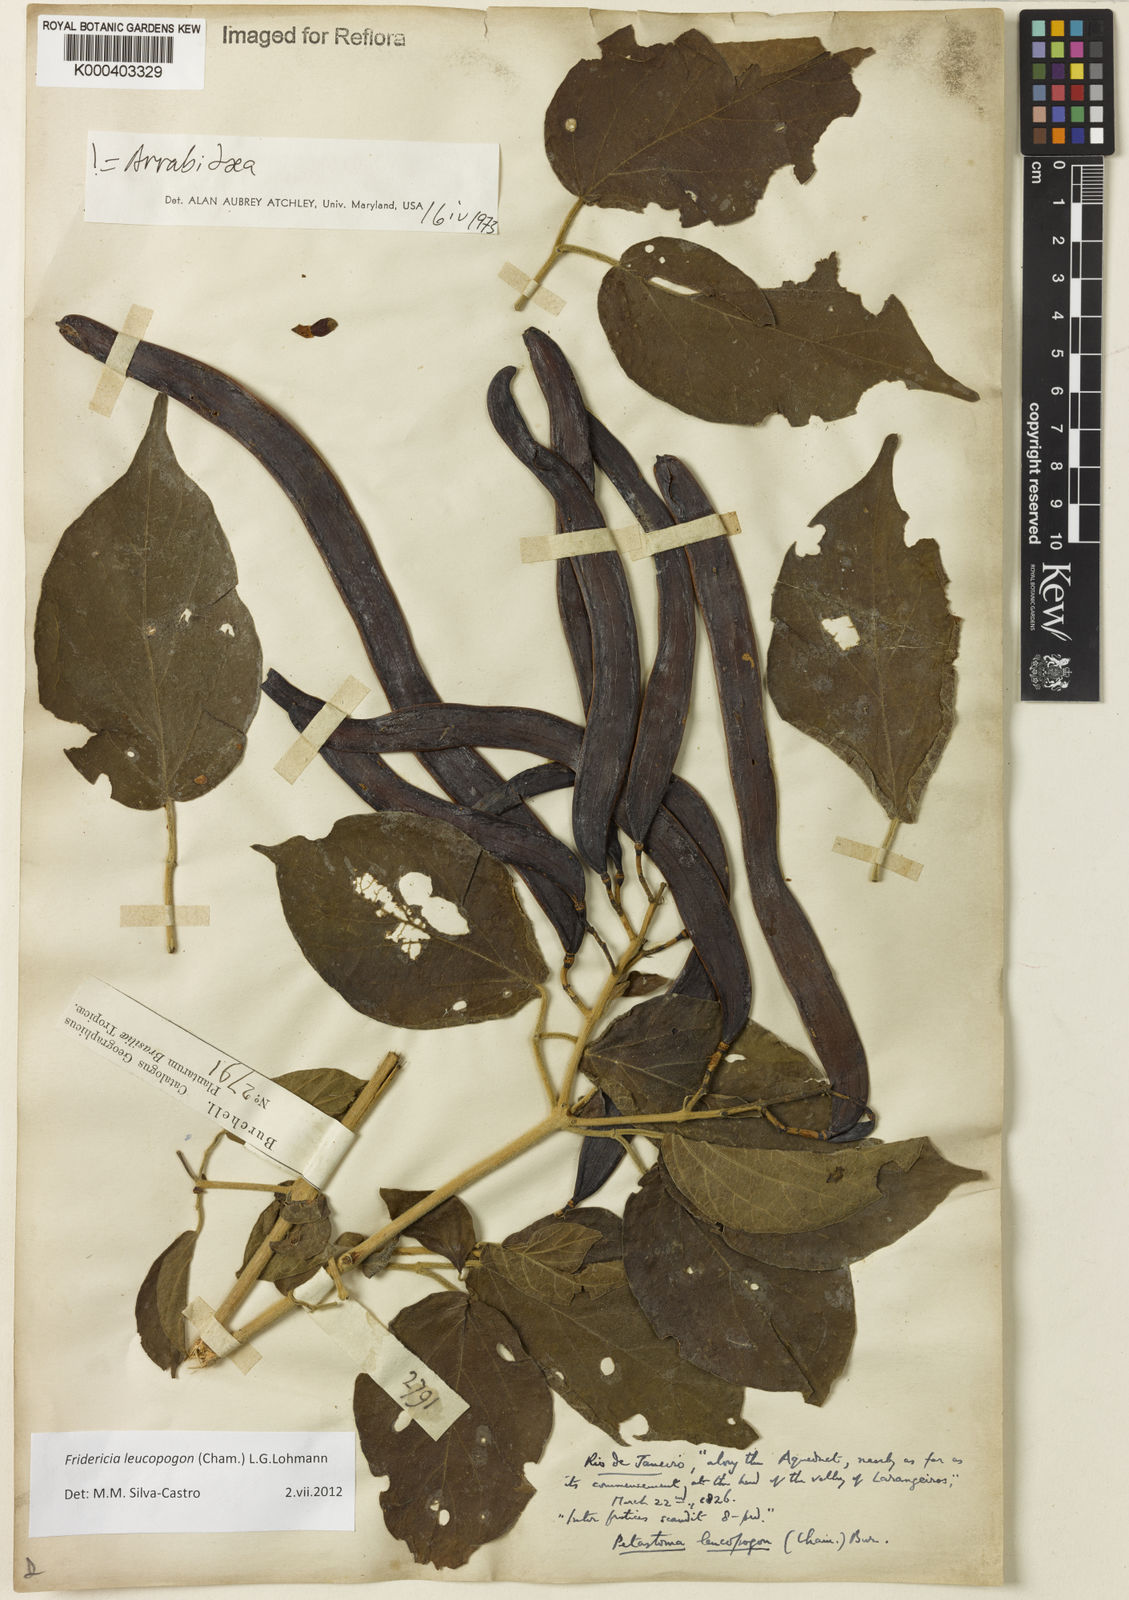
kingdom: Plantae
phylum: Tracheophyta
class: Magnoliopsida
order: Lamiales
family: Bignoniaceae
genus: Fridericia
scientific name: Fridericia leucopogon
